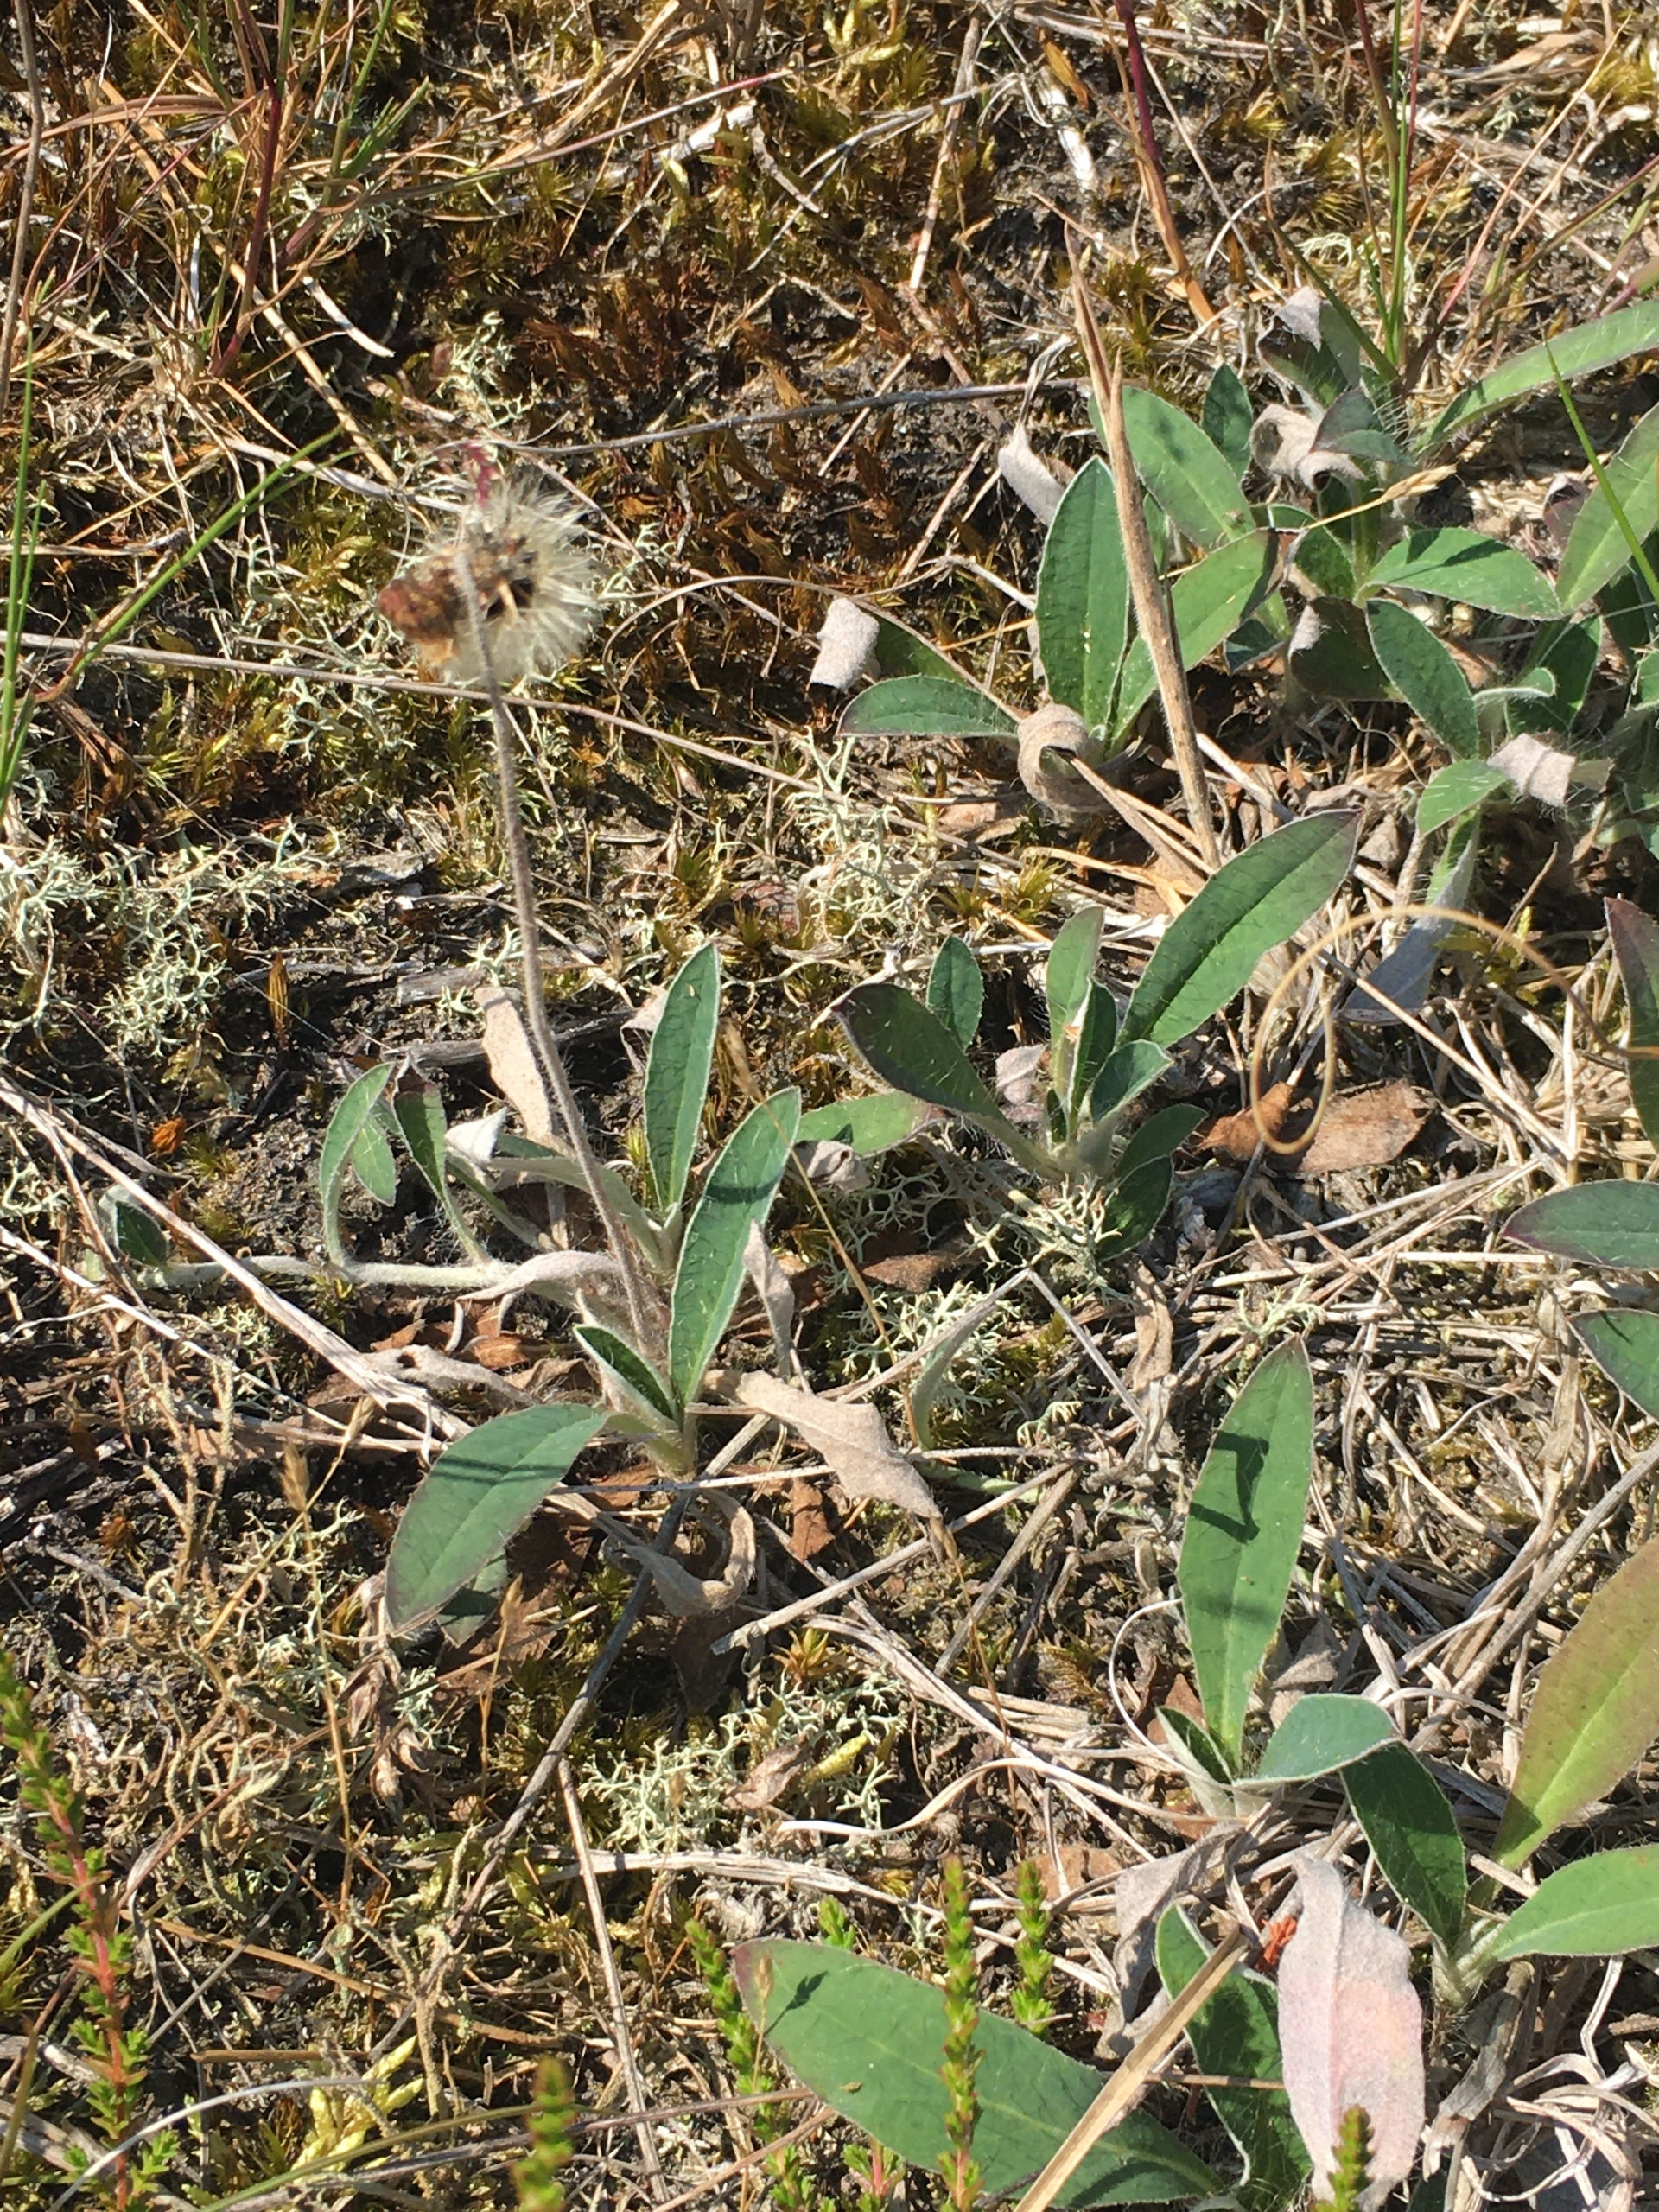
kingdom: Plantae
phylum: Tracheophyta
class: Magnoliopsida
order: Asterales
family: Asteraceae
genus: Pilosella
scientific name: Pilosella officinarum
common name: Håret høgeurt
